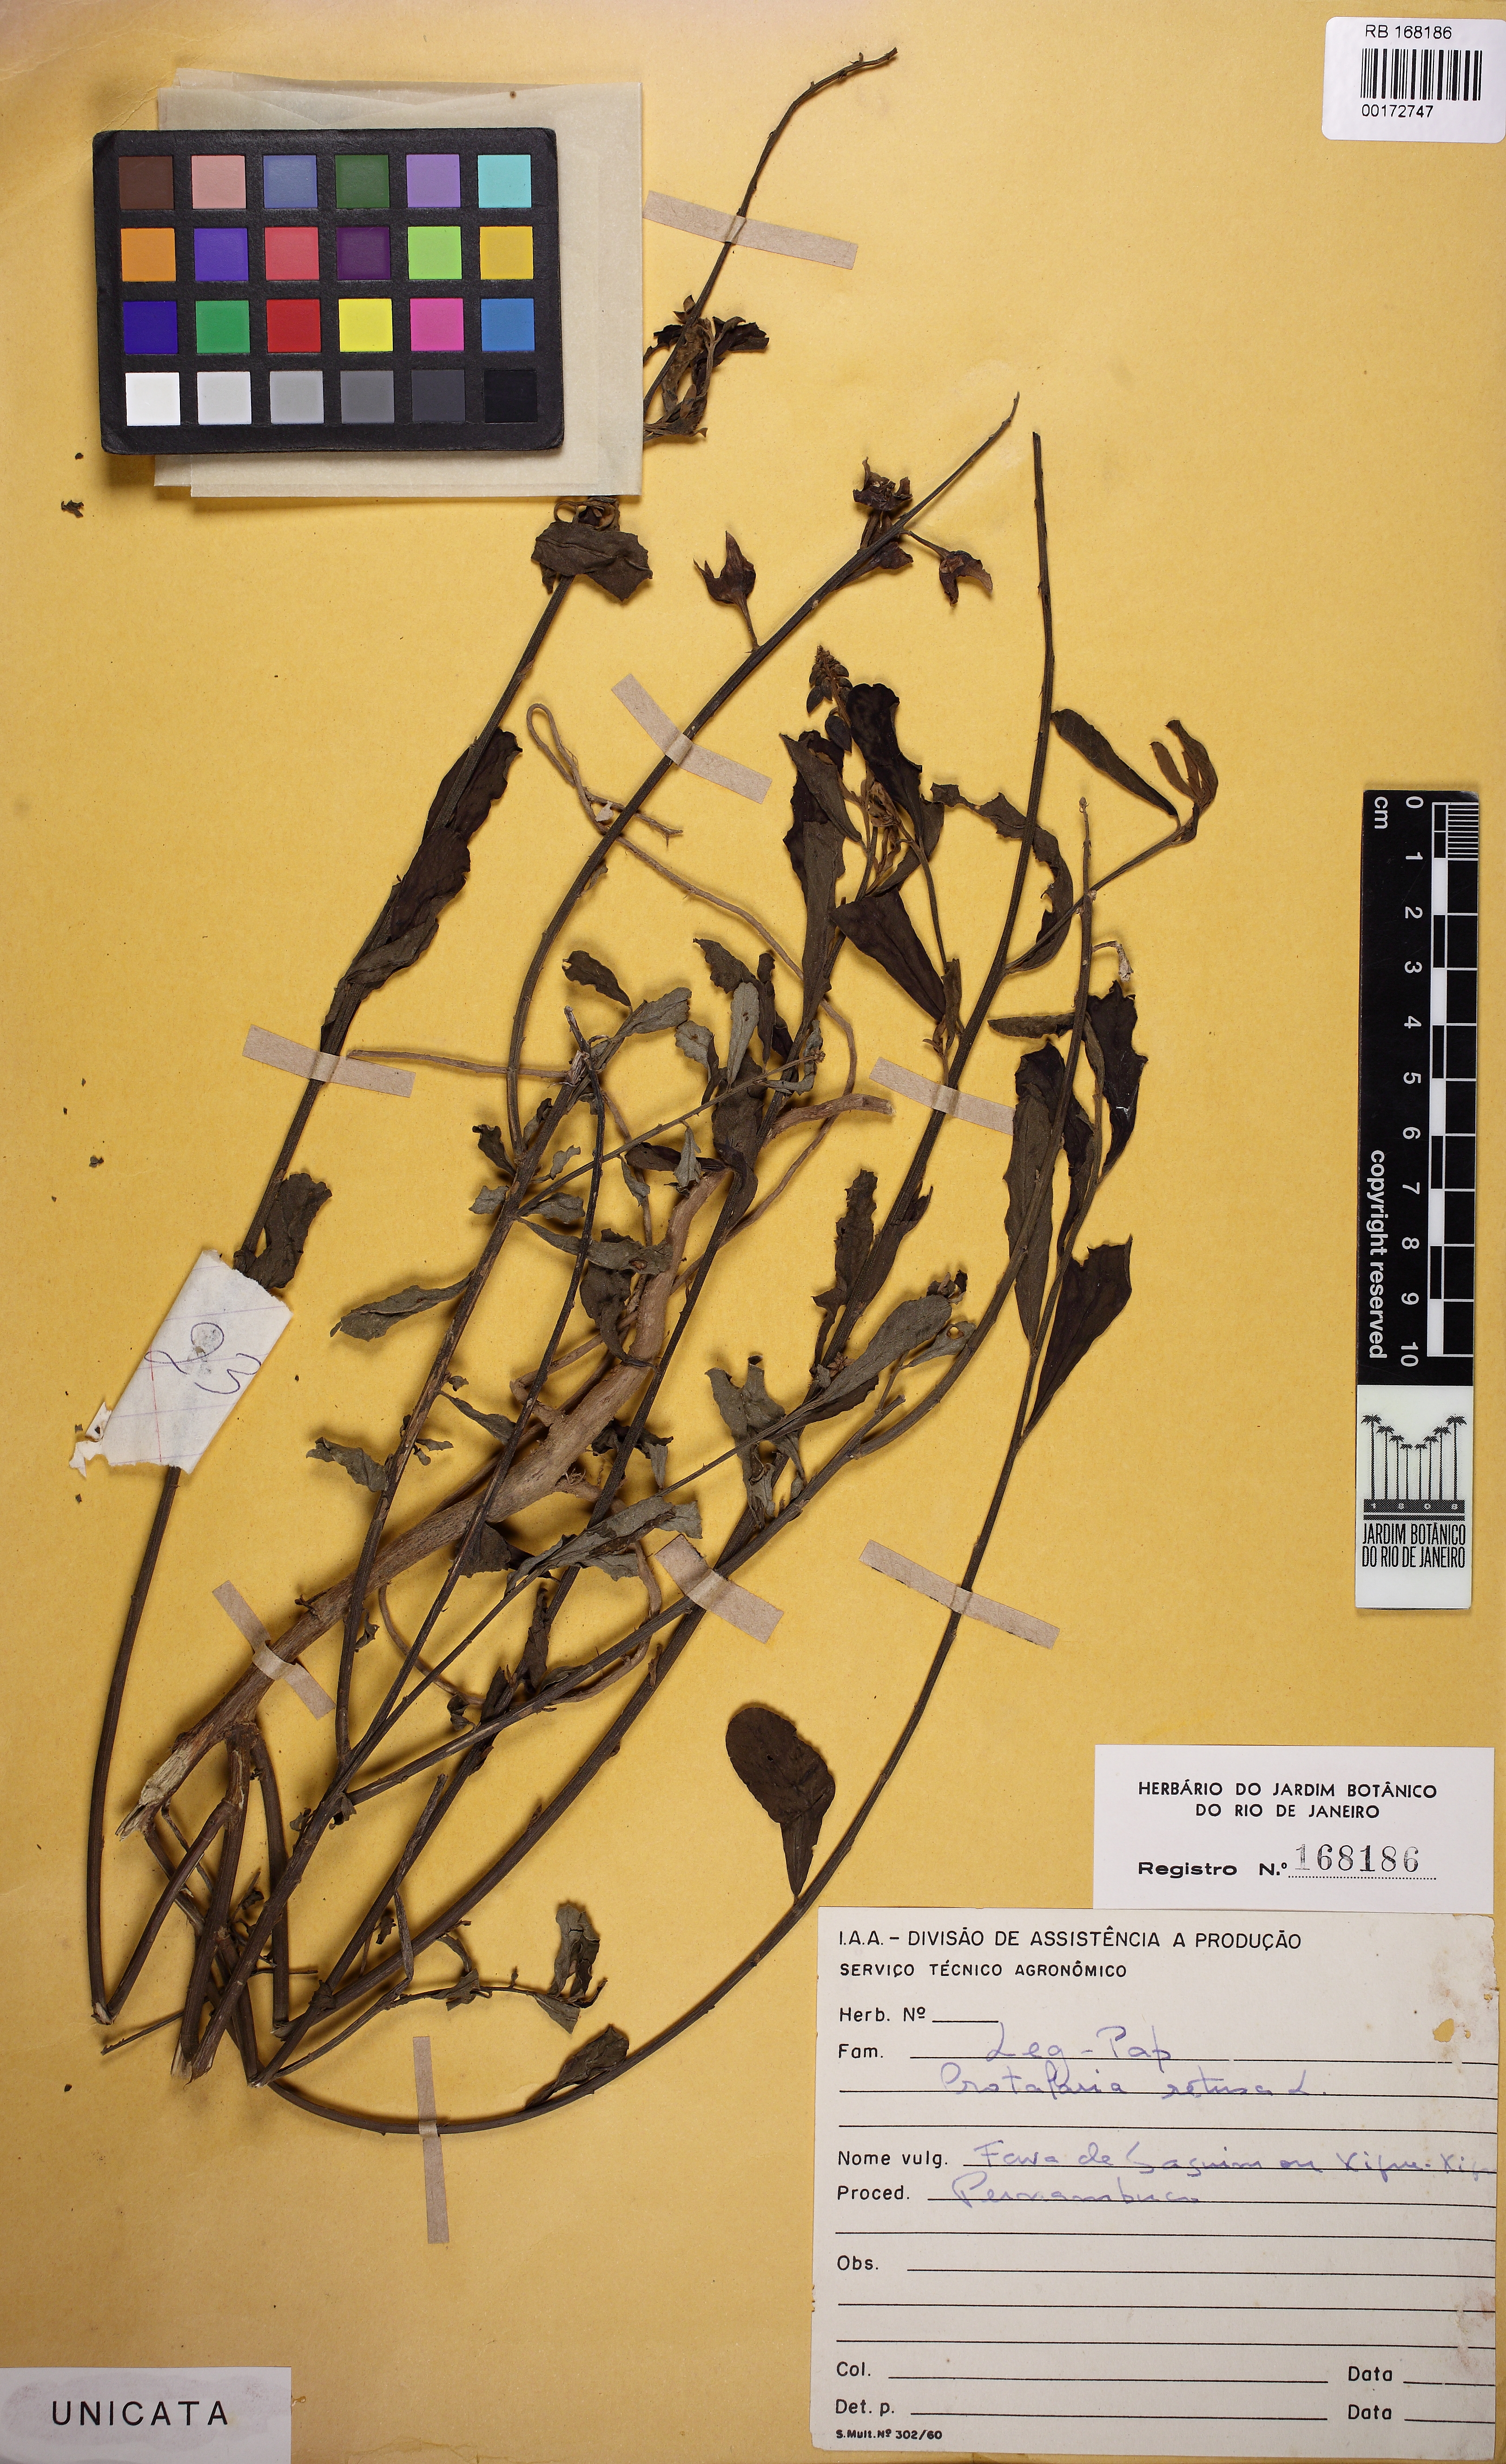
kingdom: Plantae
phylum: Tracheophyta
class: Magnoliopsida
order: Fabales
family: Fabaceae
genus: Crotalaria
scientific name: Crotalaria retusa
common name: Rattleweed
